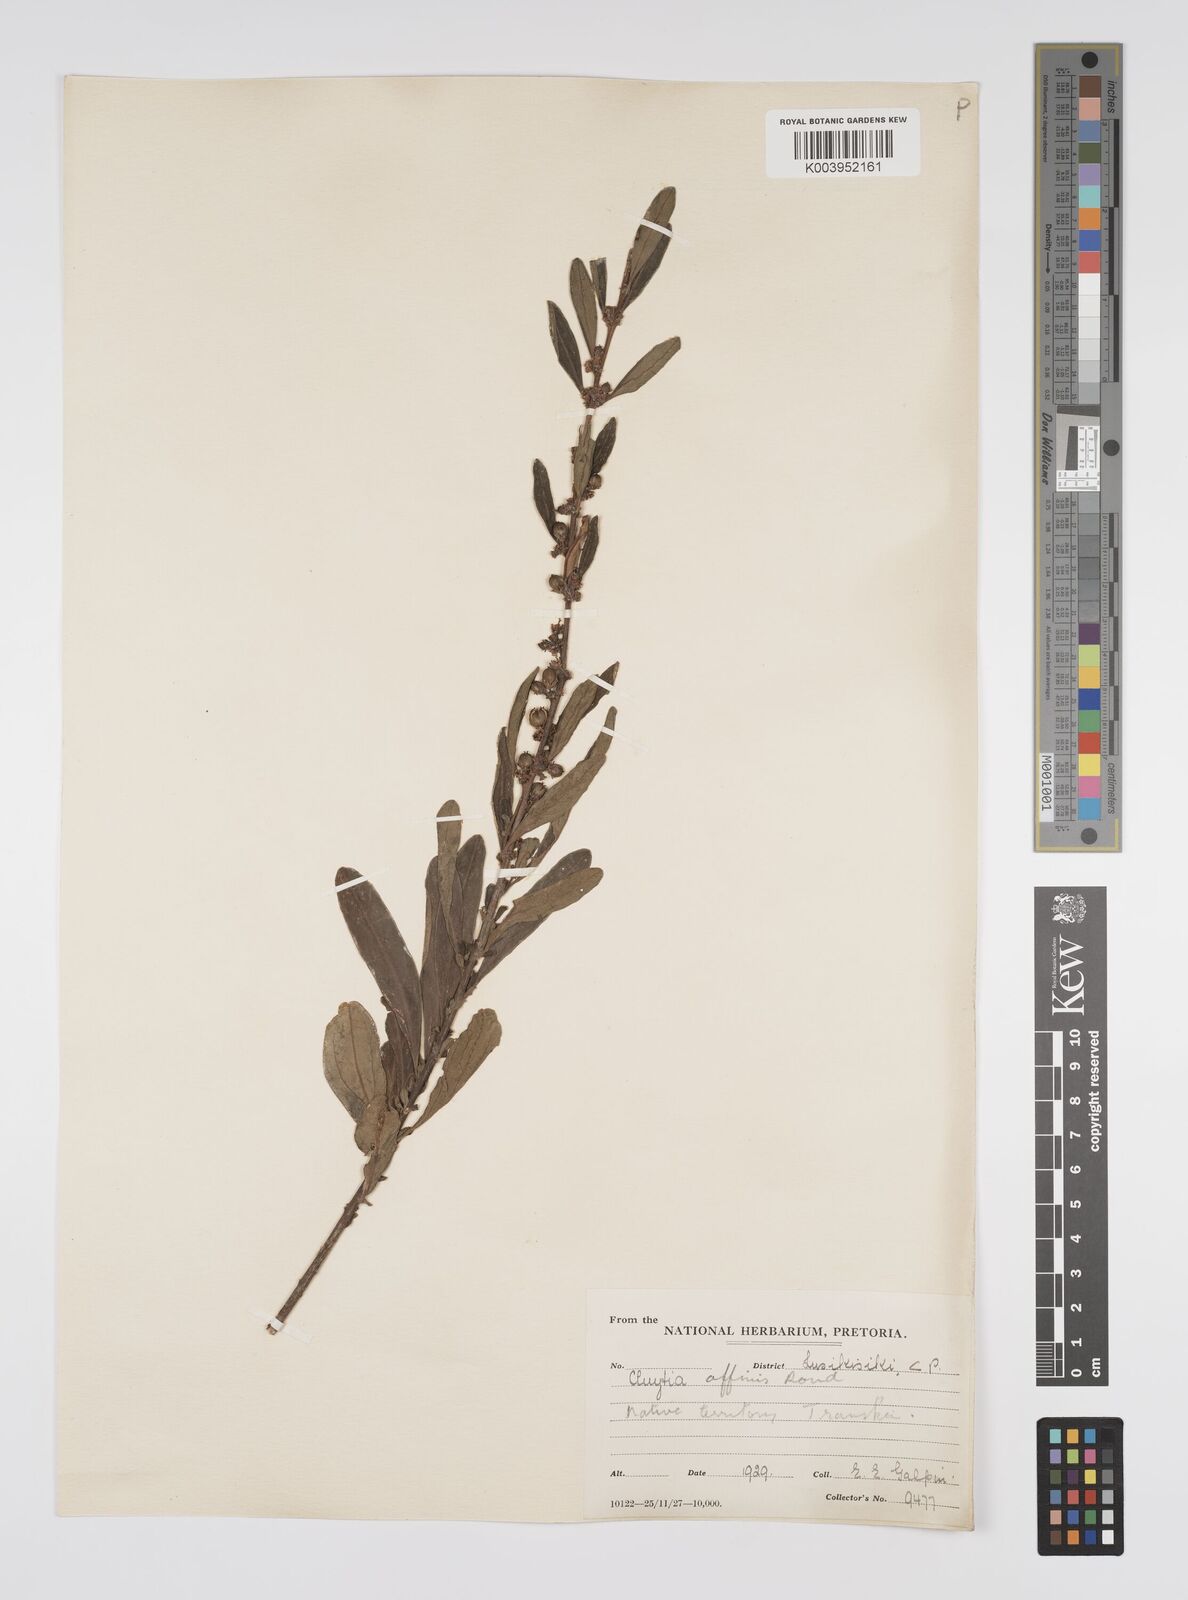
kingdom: Plantae
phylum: Tracheophyta
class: Magnoliopsida
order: Malpighiales
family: Peraceae
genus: Clutia
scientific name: Clutia affinis
